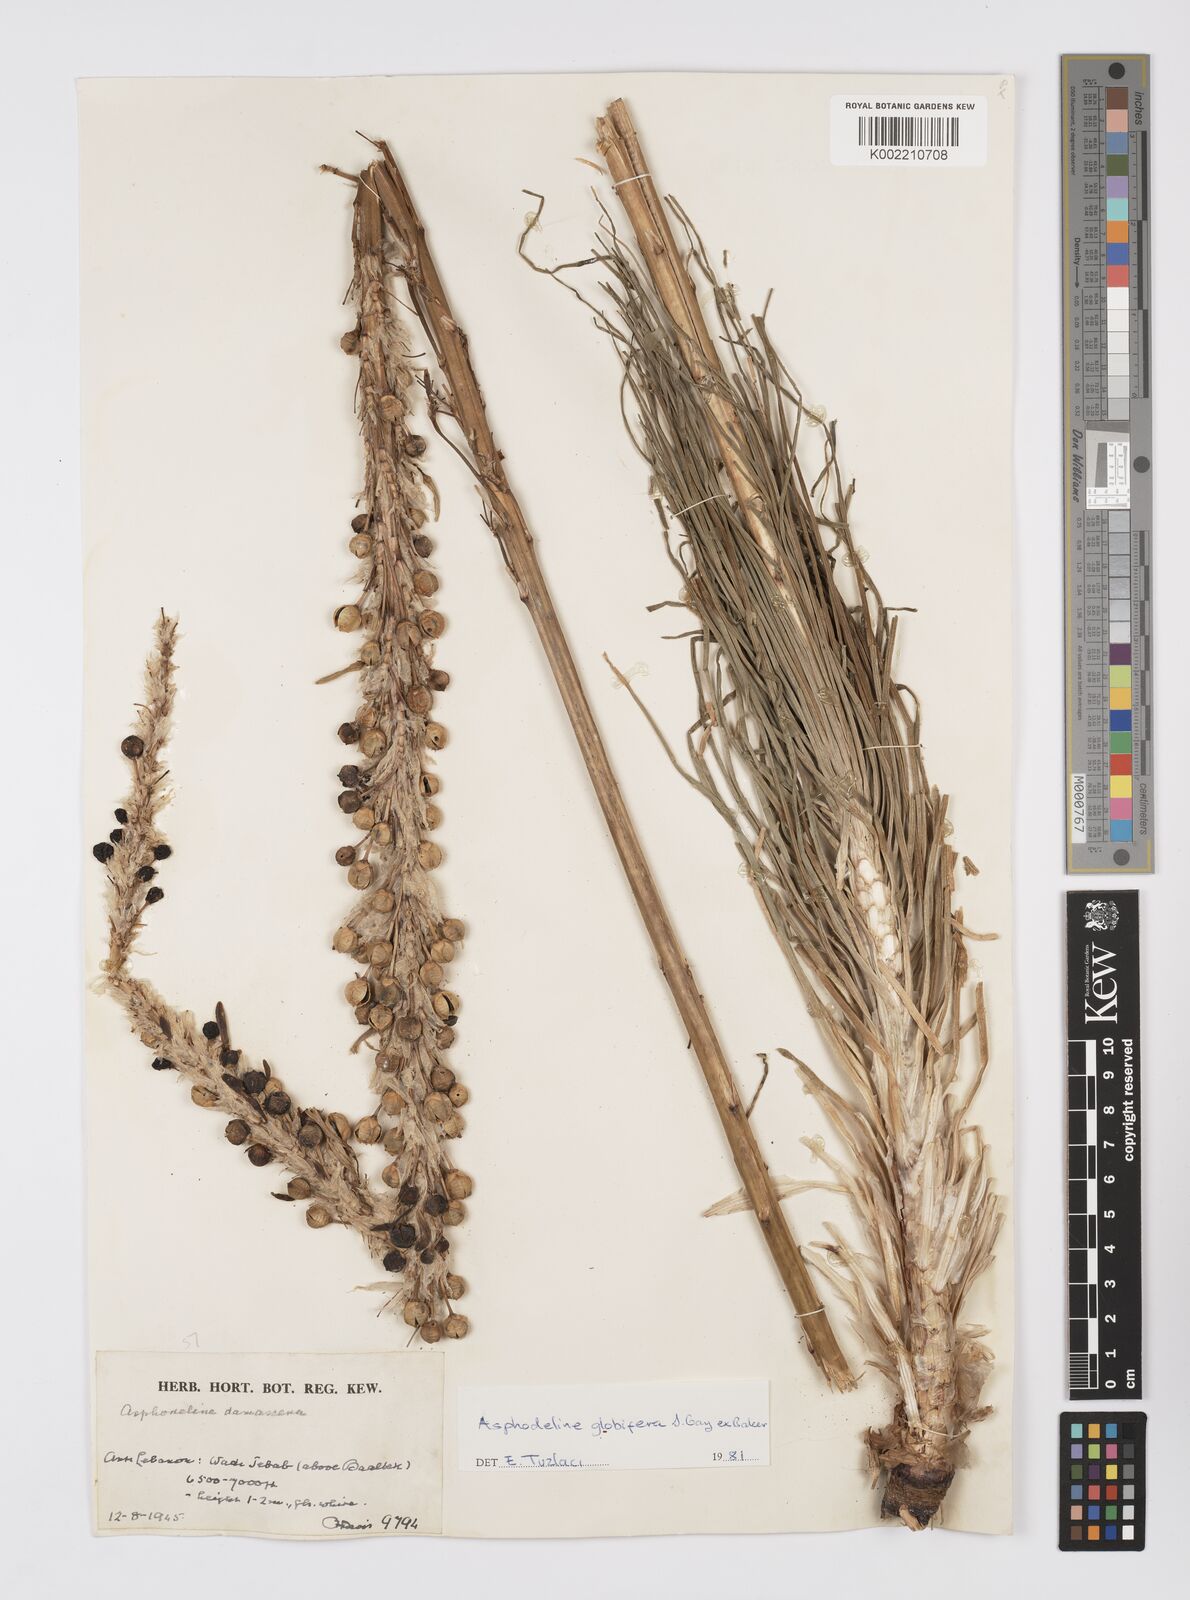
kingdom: Plantae
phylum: Tracheophyta
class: Liliopsida
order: Asparagales
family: Asphodelaceae
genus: Asphodeline
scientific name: Asphodeline globifera
